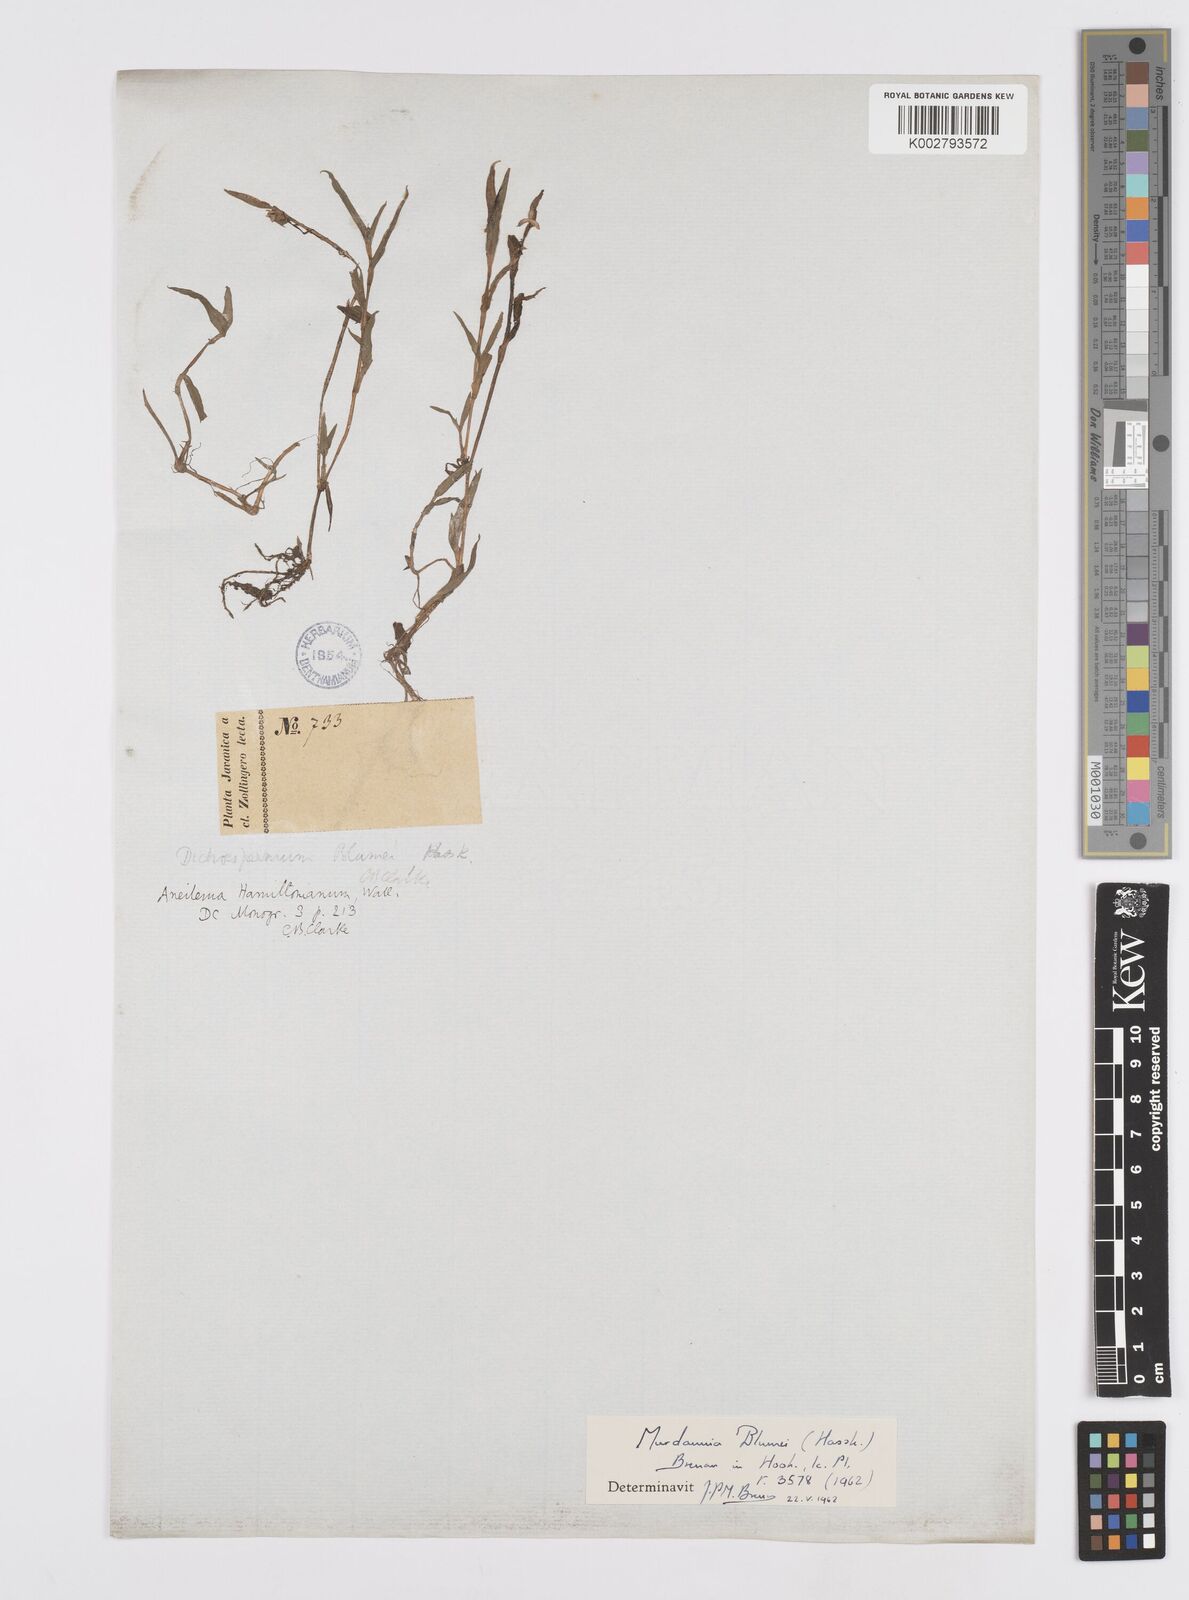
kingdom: Plantae
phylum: Tracheophyta
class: Liliopsida
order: Commelinales
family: Commelinaceae
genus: Murdannia
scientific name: Murdannia blumei
